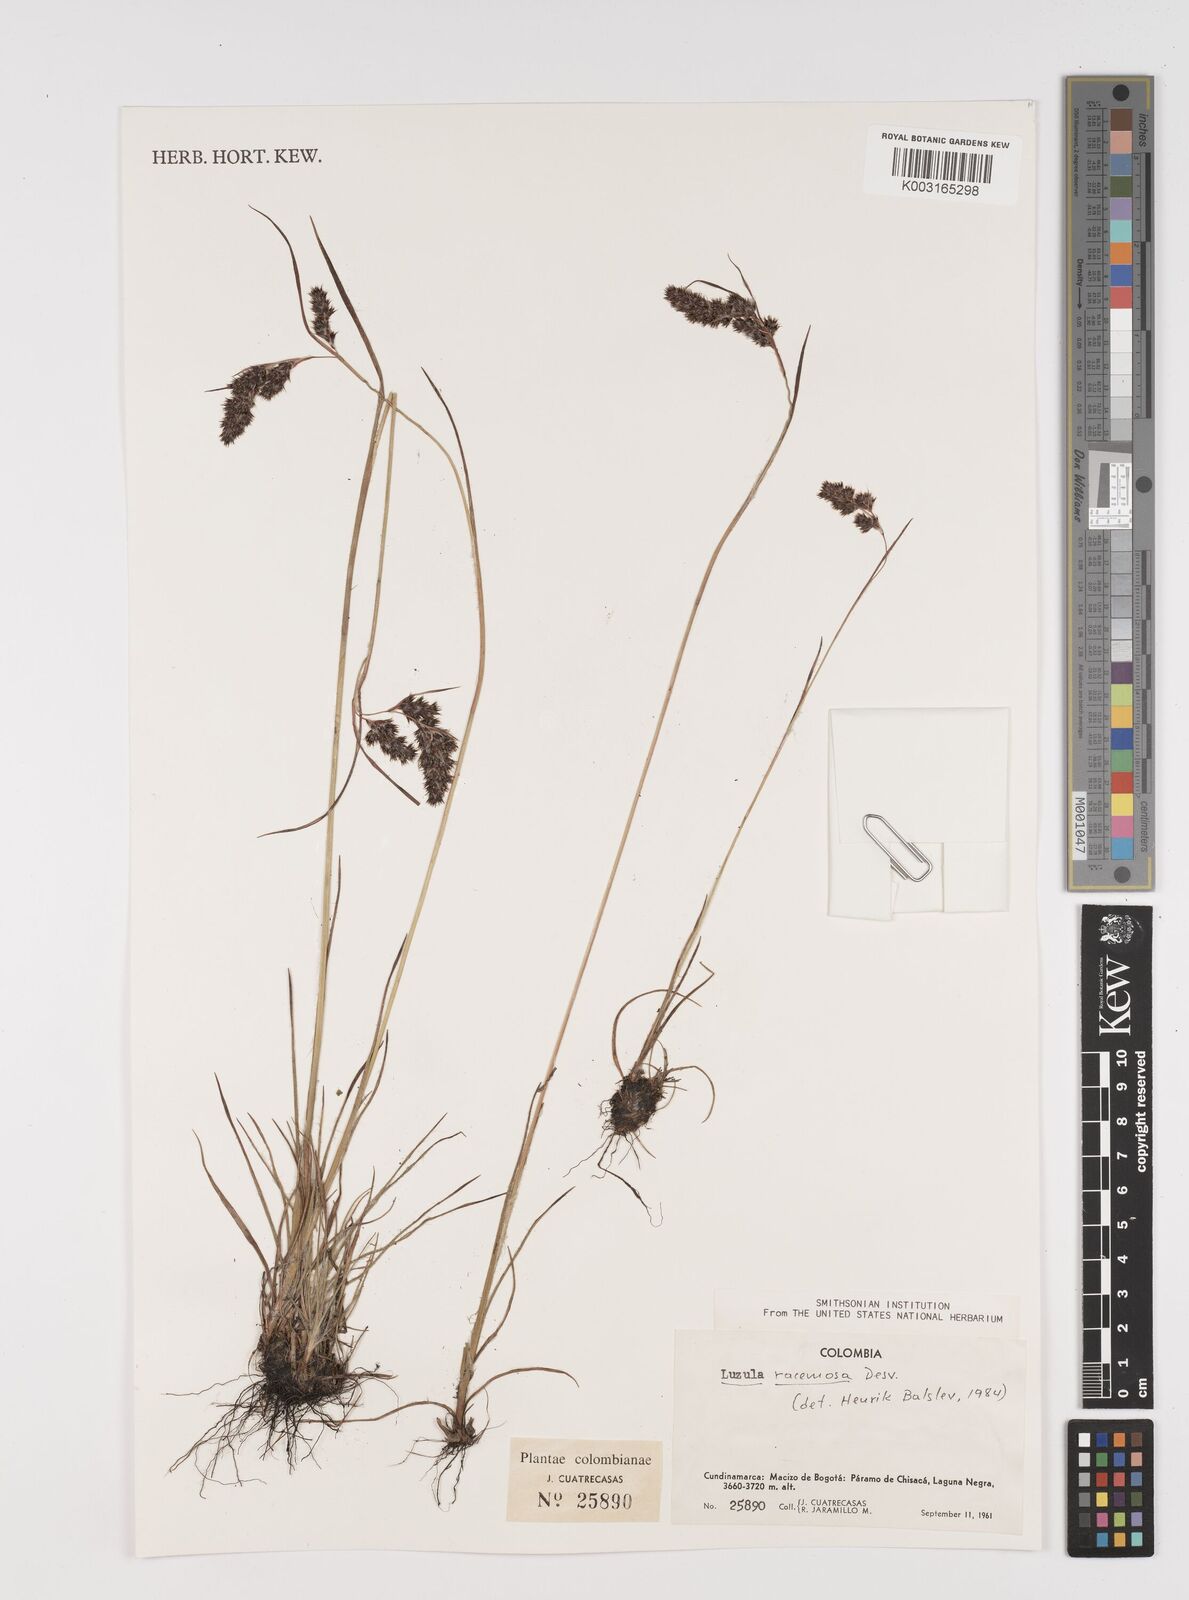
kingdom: Plantae
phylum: Tracheophyta
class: Liliopsida
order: Poales
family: Juncaceae
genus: Luzula
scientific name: Luzula racemosa
